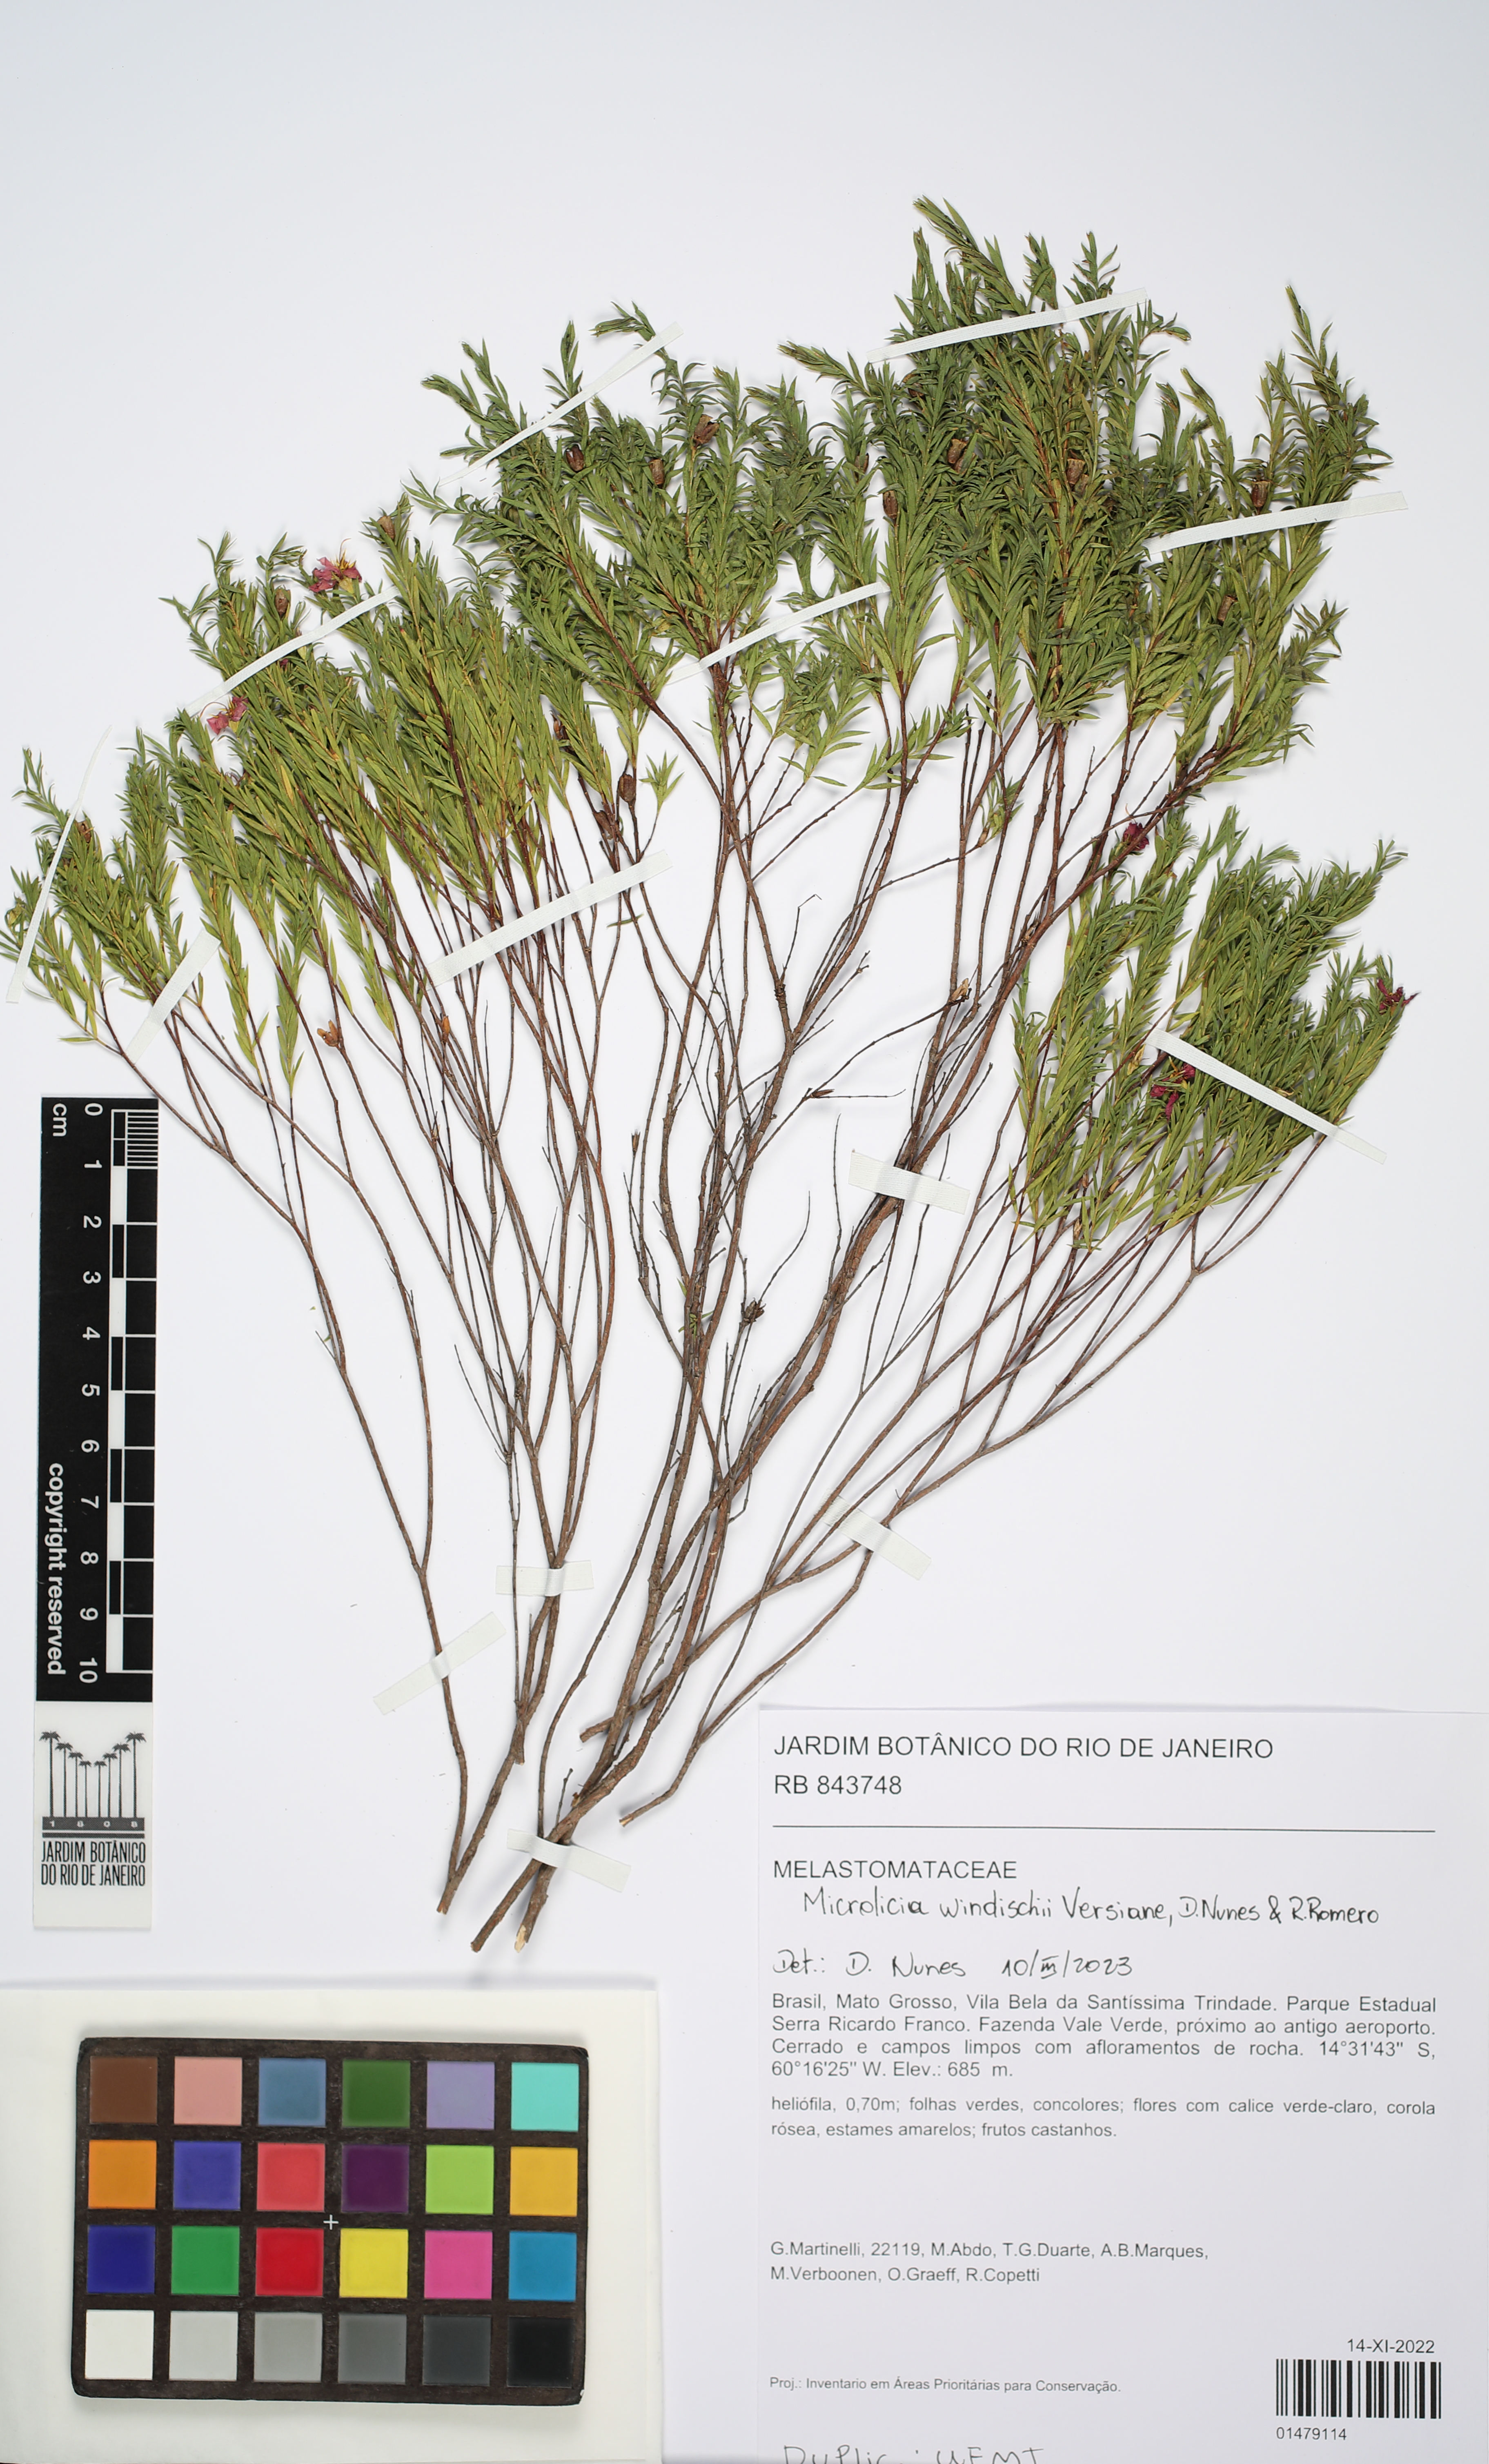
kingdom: Plantae
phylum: Tracheophyta
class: Magnoliopsida
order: Myrtales
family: Melastomataceae
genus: Microlicia
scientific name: Microlicia windischii
